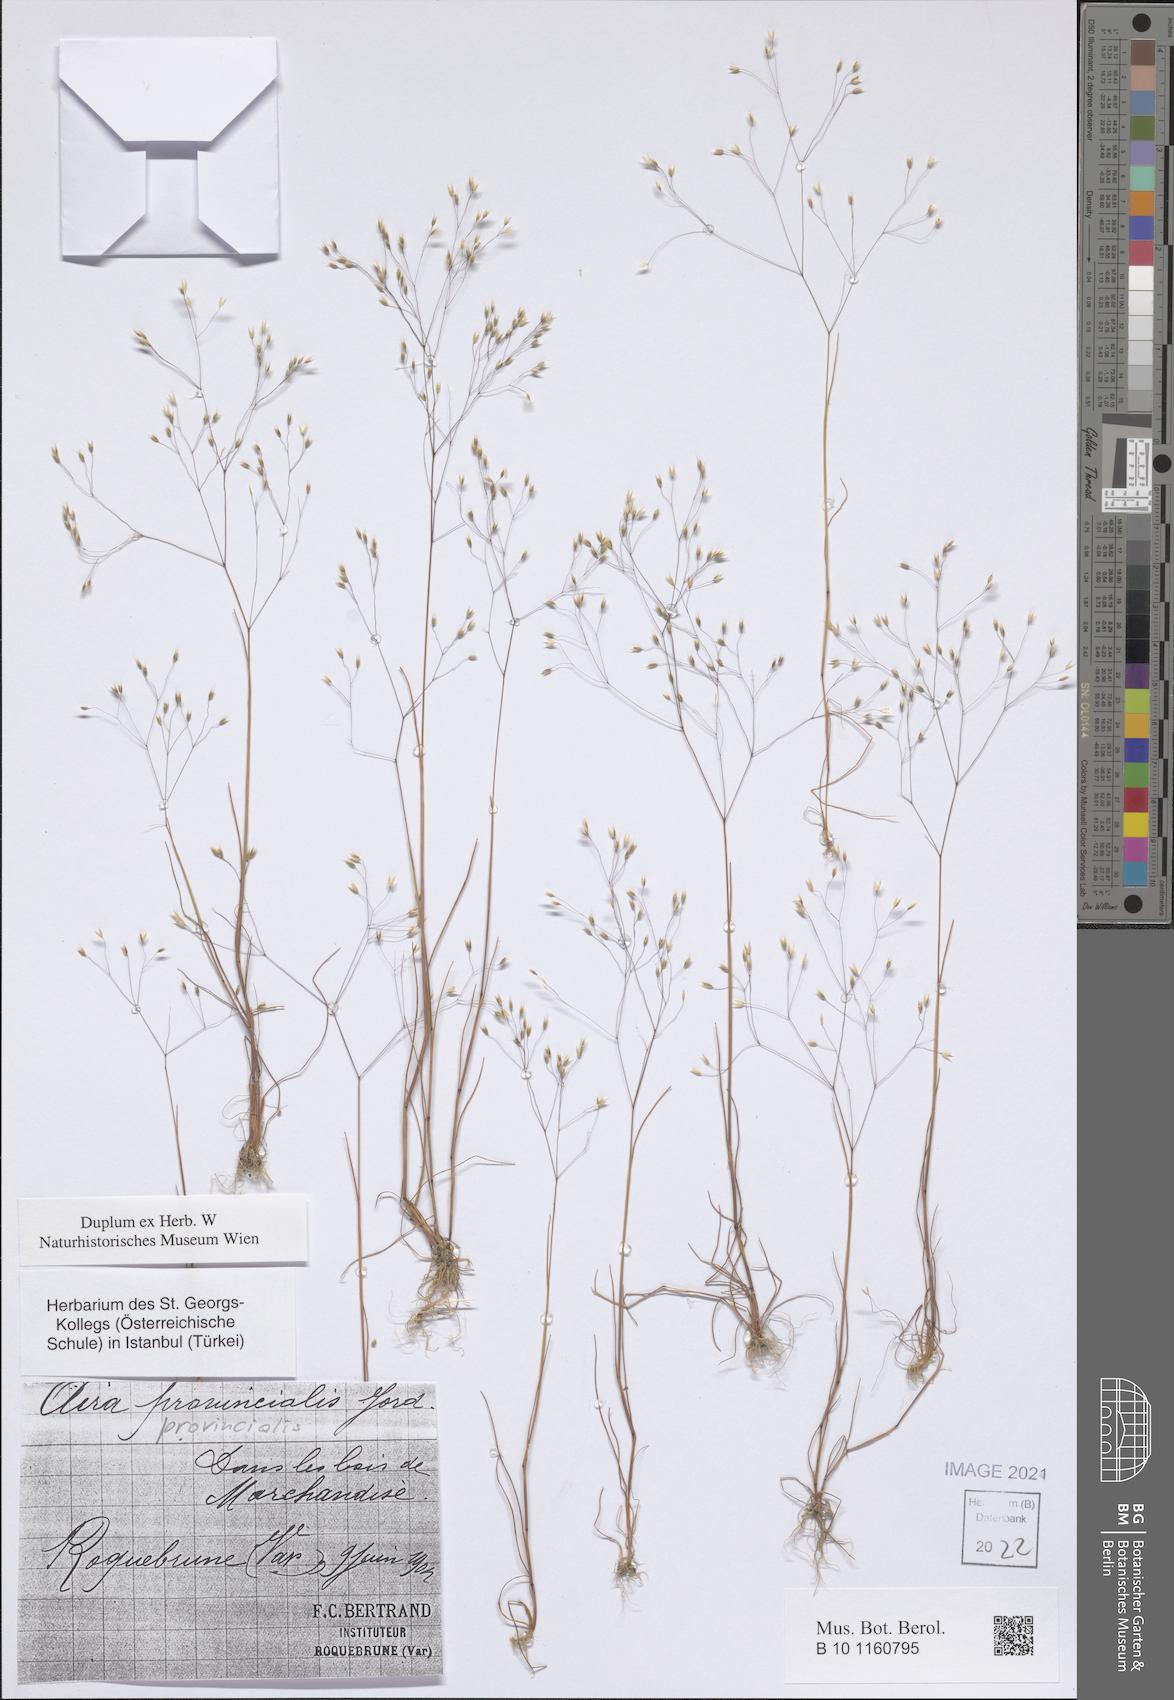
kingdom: Plantae
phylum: Tracheophyta
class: Liliopsida
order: Poales
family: Poaceae
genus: Aira
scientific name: Aira provincialis
